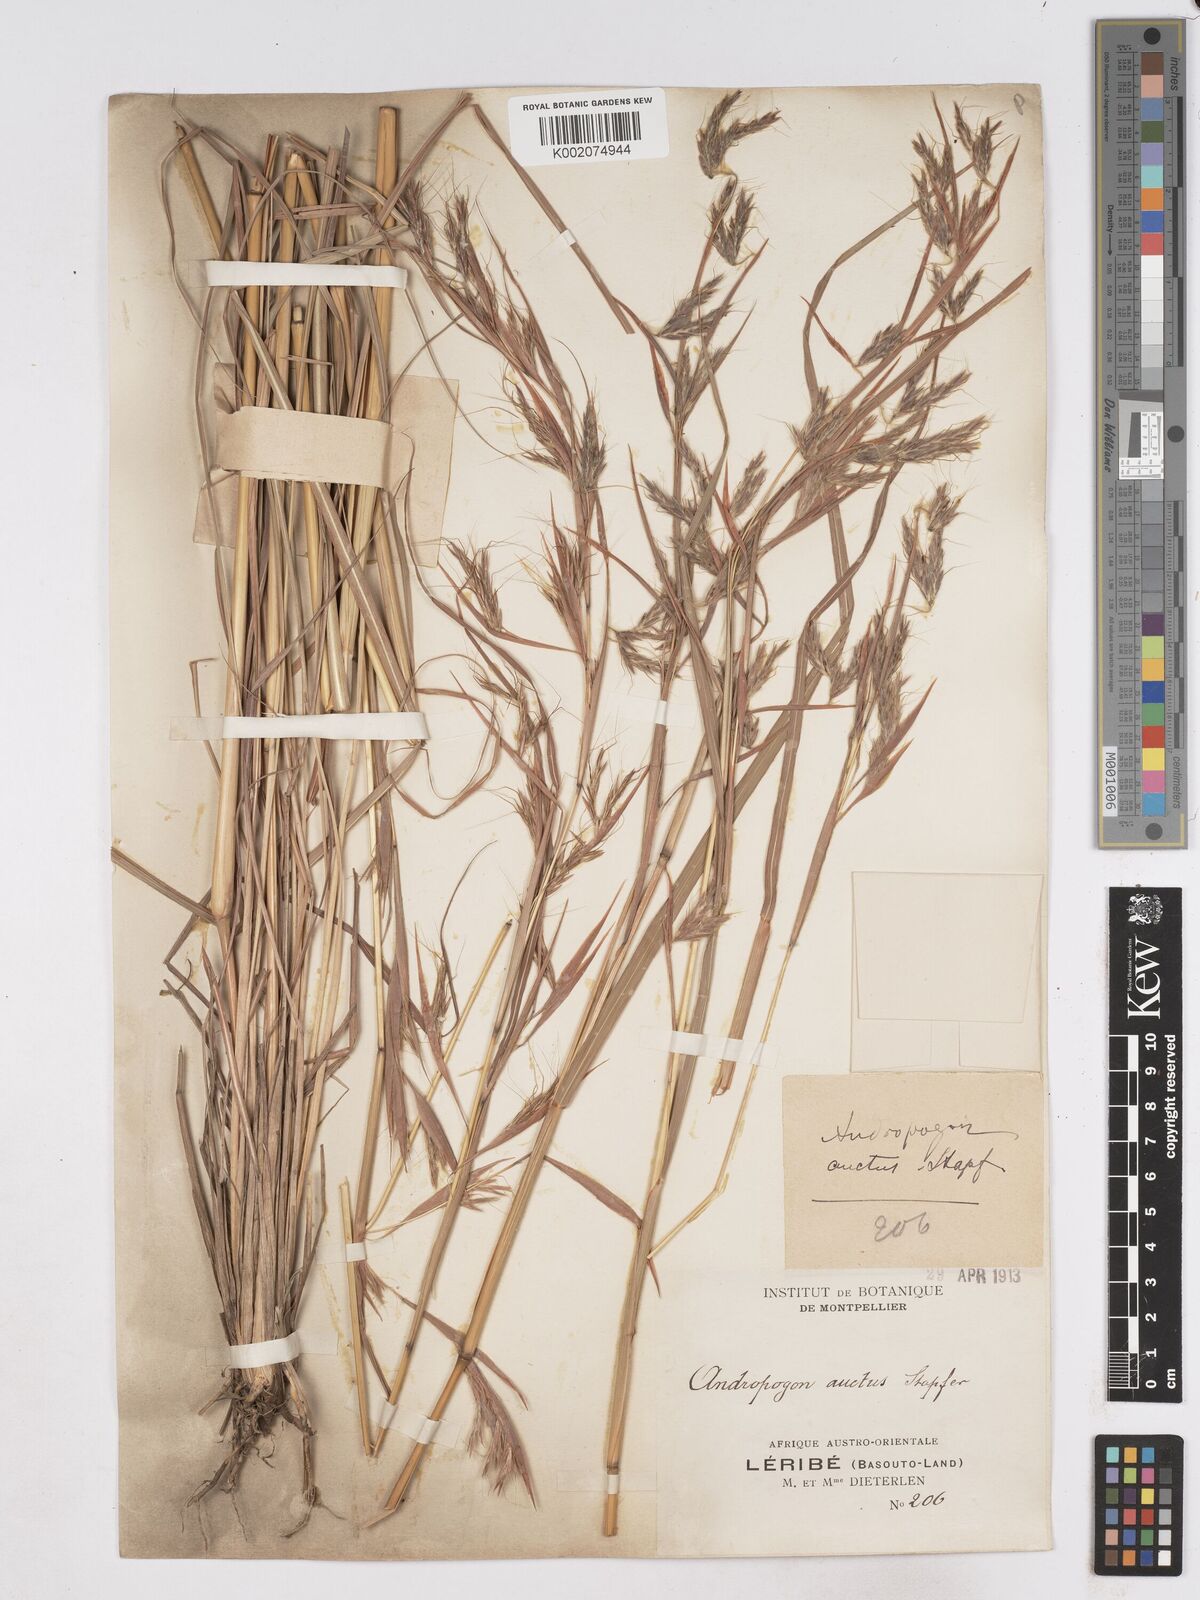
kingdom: Plantae
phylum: Tracheophyta
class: Liliopsida
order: Poales
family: Poaceae
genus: Hyparrhenia
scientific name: Hyparrhenia dregeana
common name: Silky thatching grass
